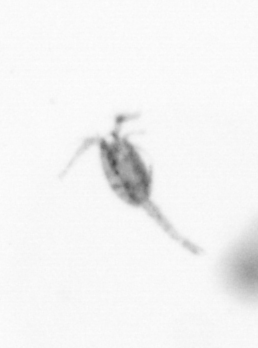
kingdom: Animalia
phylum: Arthropoda
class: Copepoda
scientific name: Copepoda
